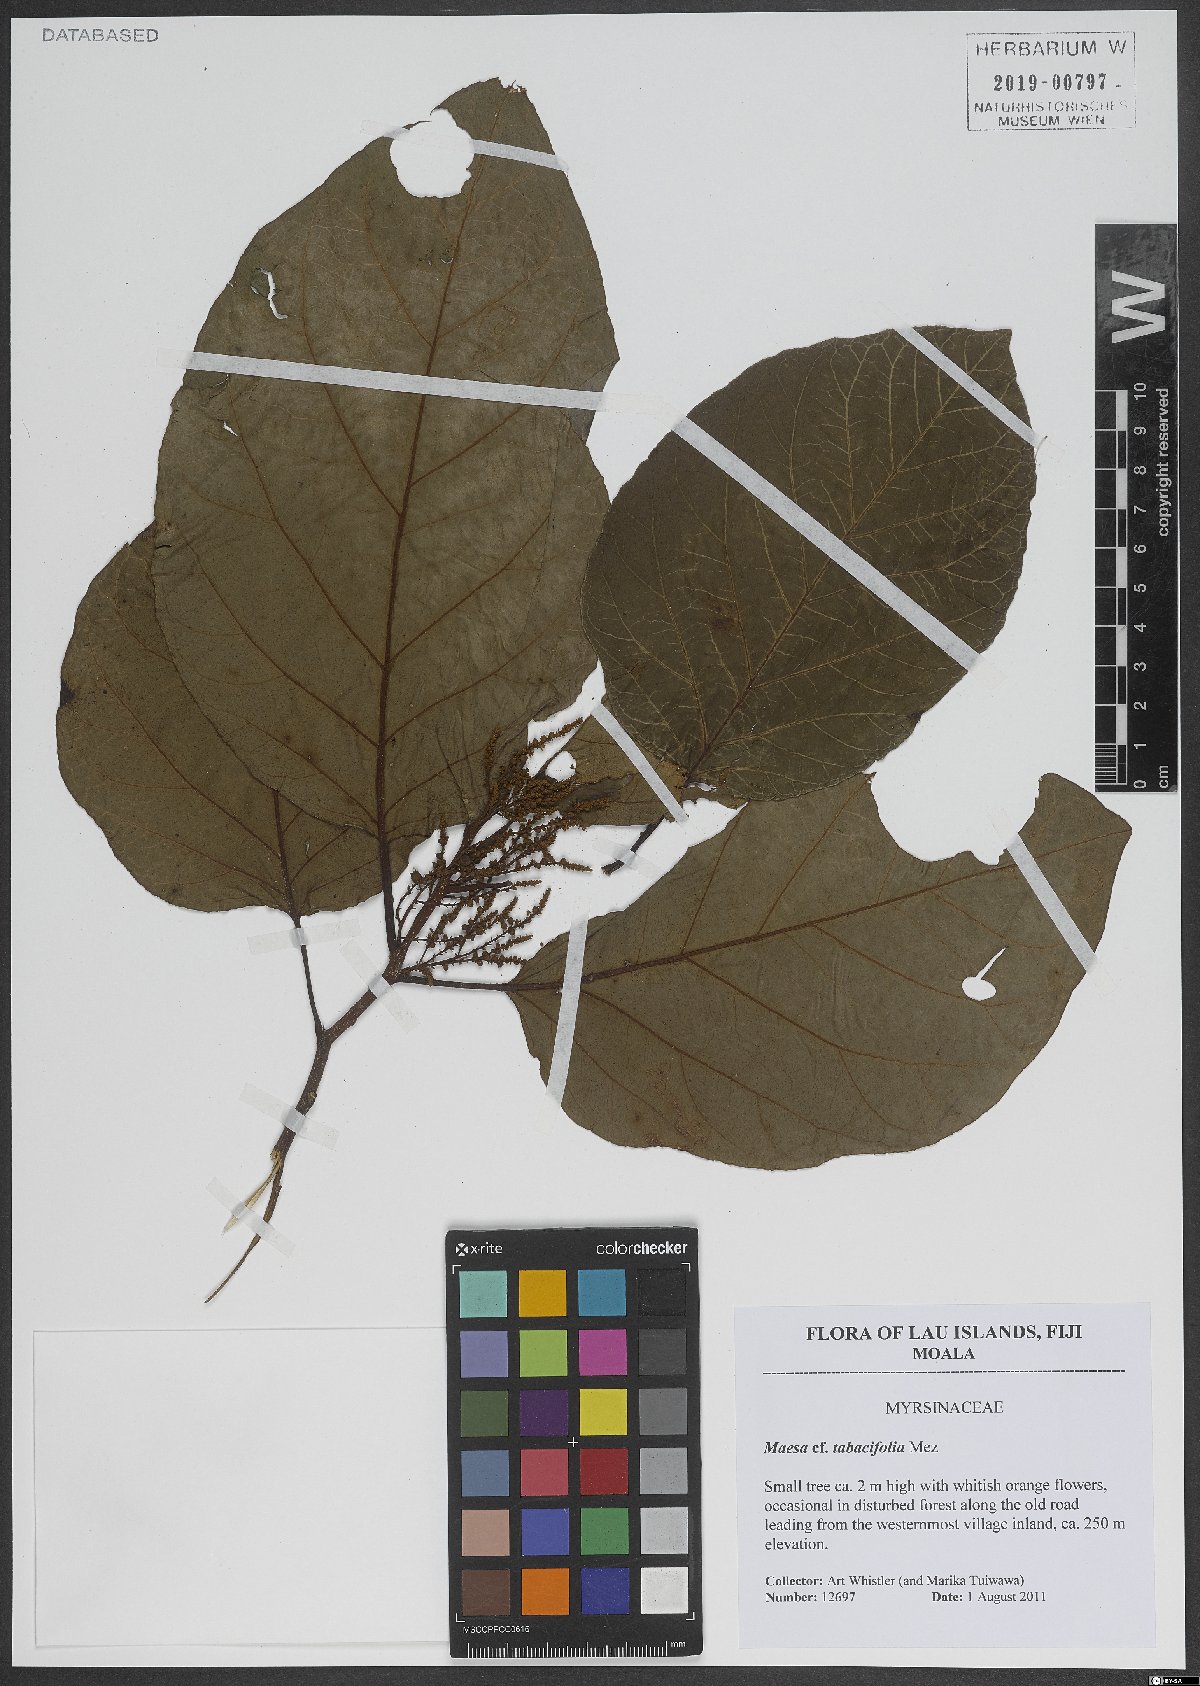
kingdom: Plantae
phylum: Tracheophyta
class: Magnoliopsida
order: Ericales
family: Primulaceae
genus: Maesa
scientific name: Maesa tabacifolia
